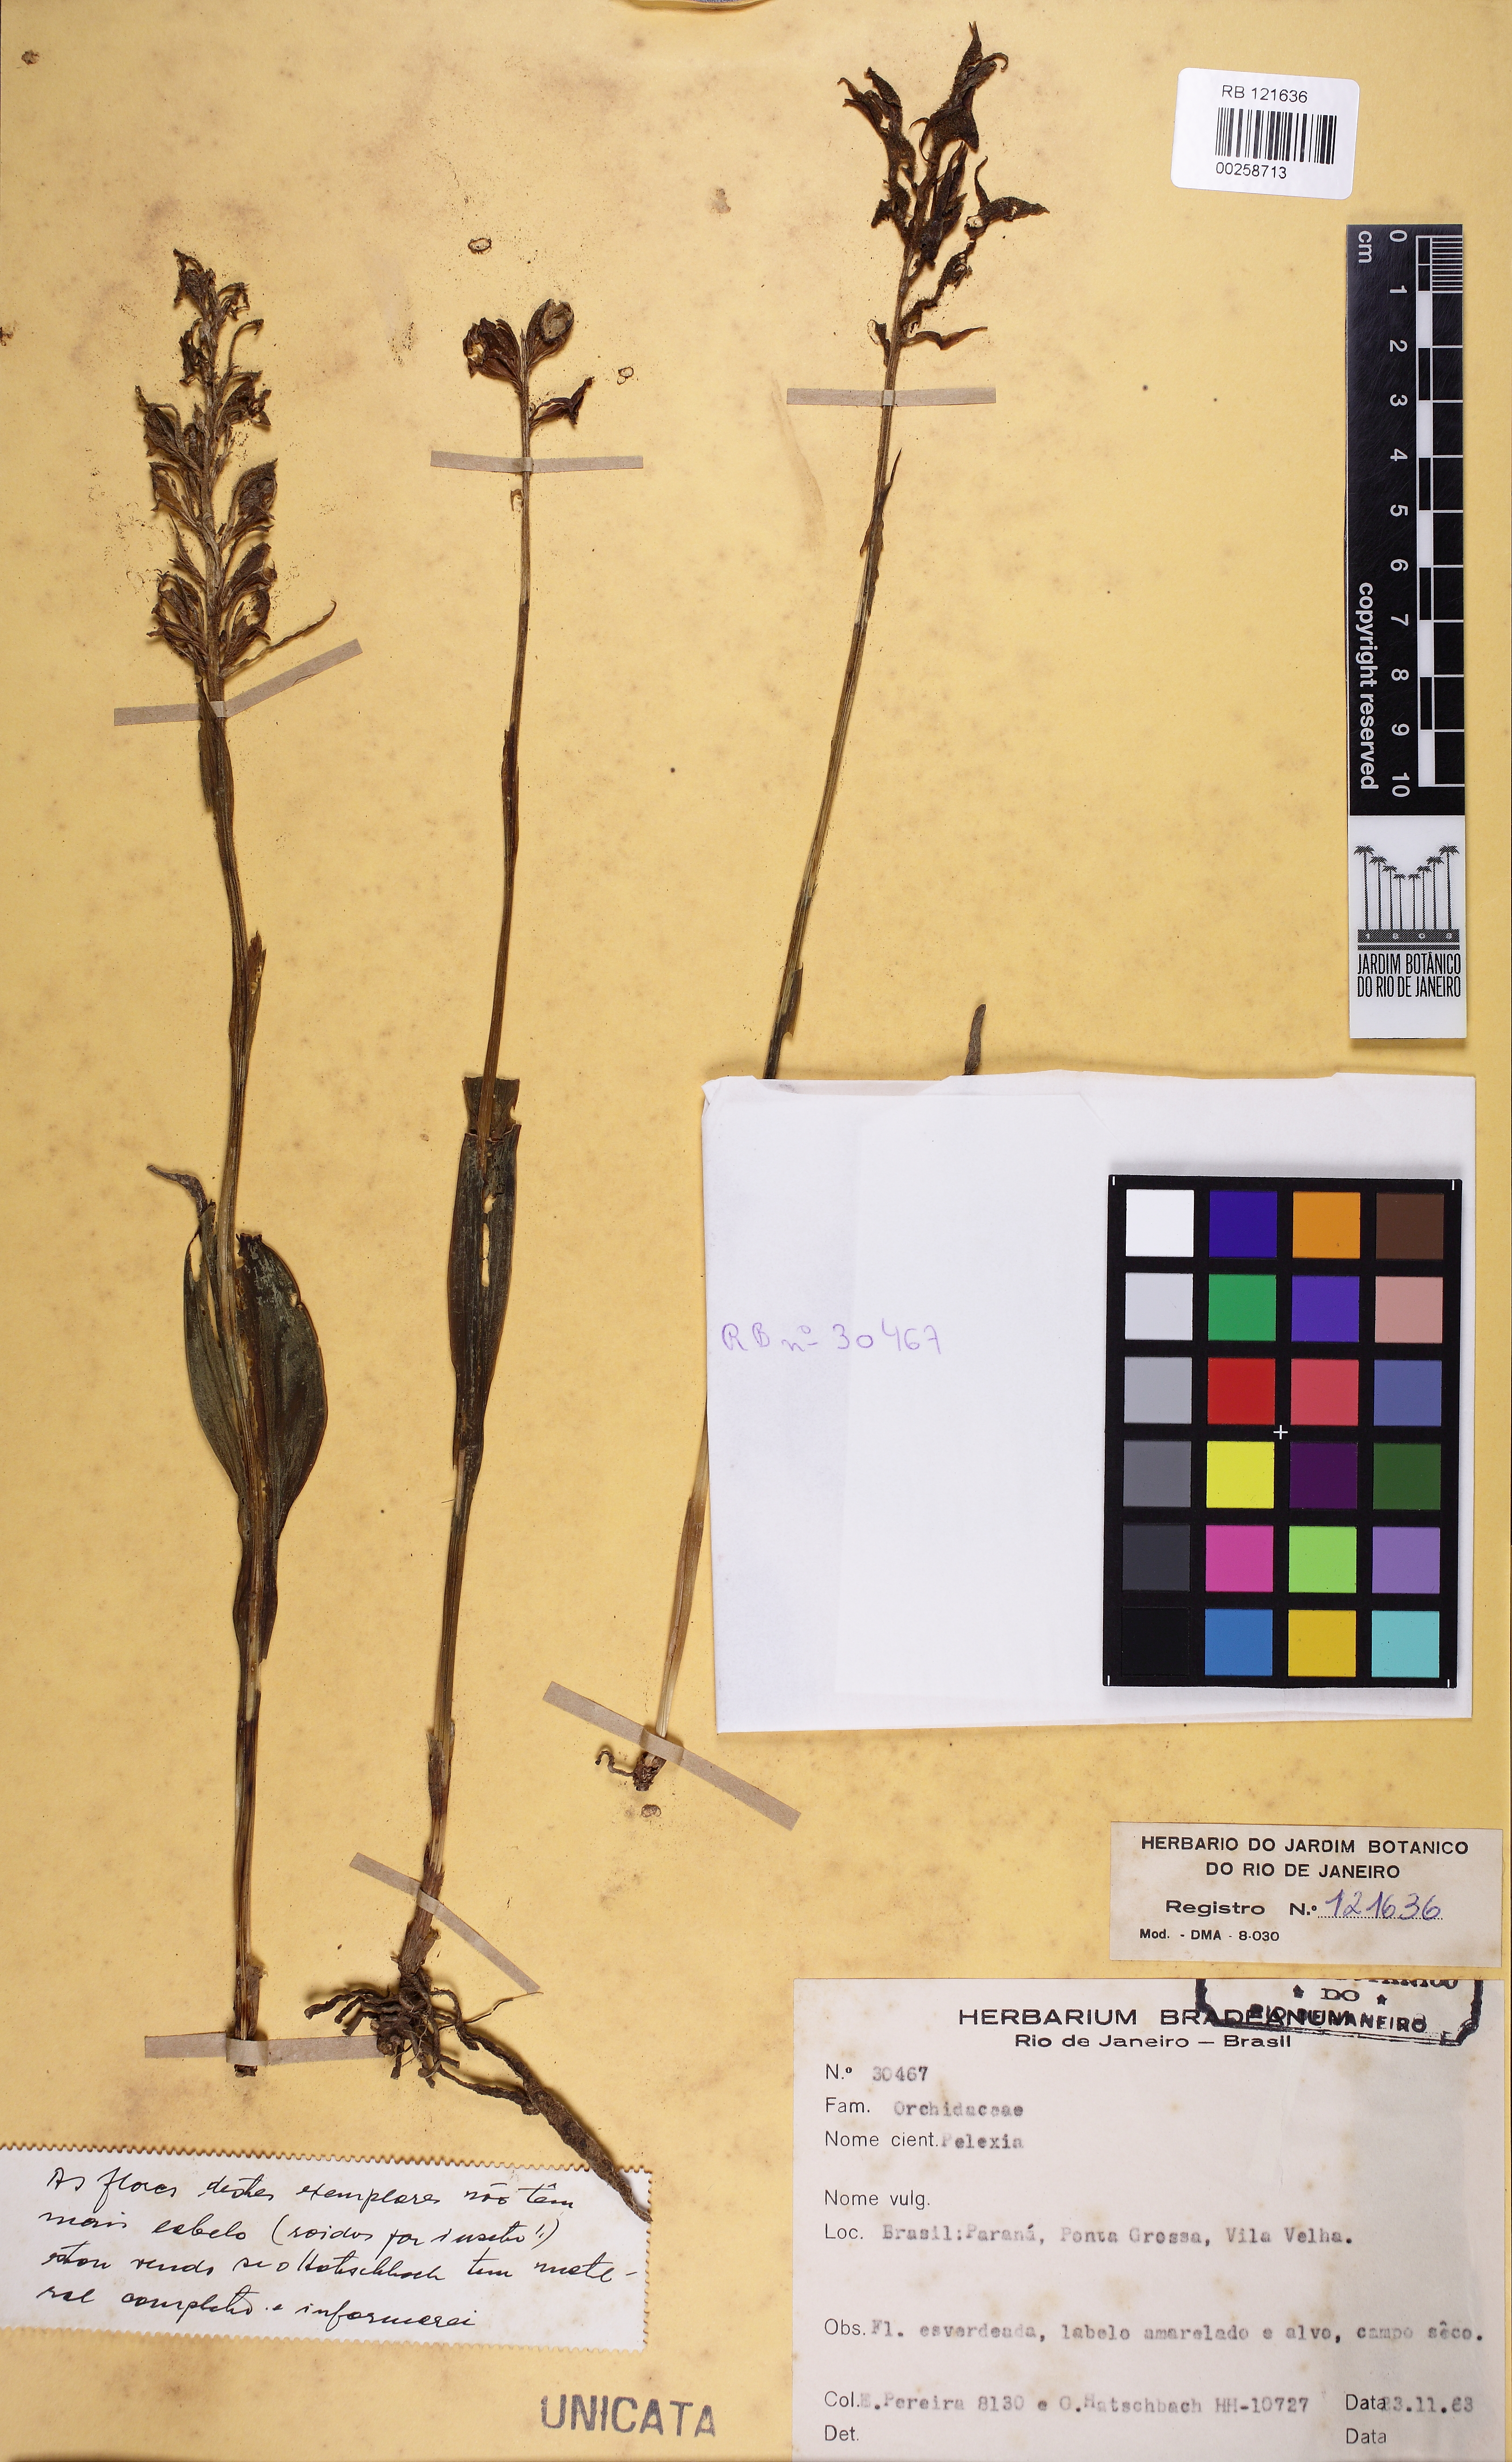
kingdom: Plantae
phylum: Tracheophyta
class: Liliopsida
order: Asparagales
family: Orchidaceae
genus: Pelexia
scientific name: Pelexia
